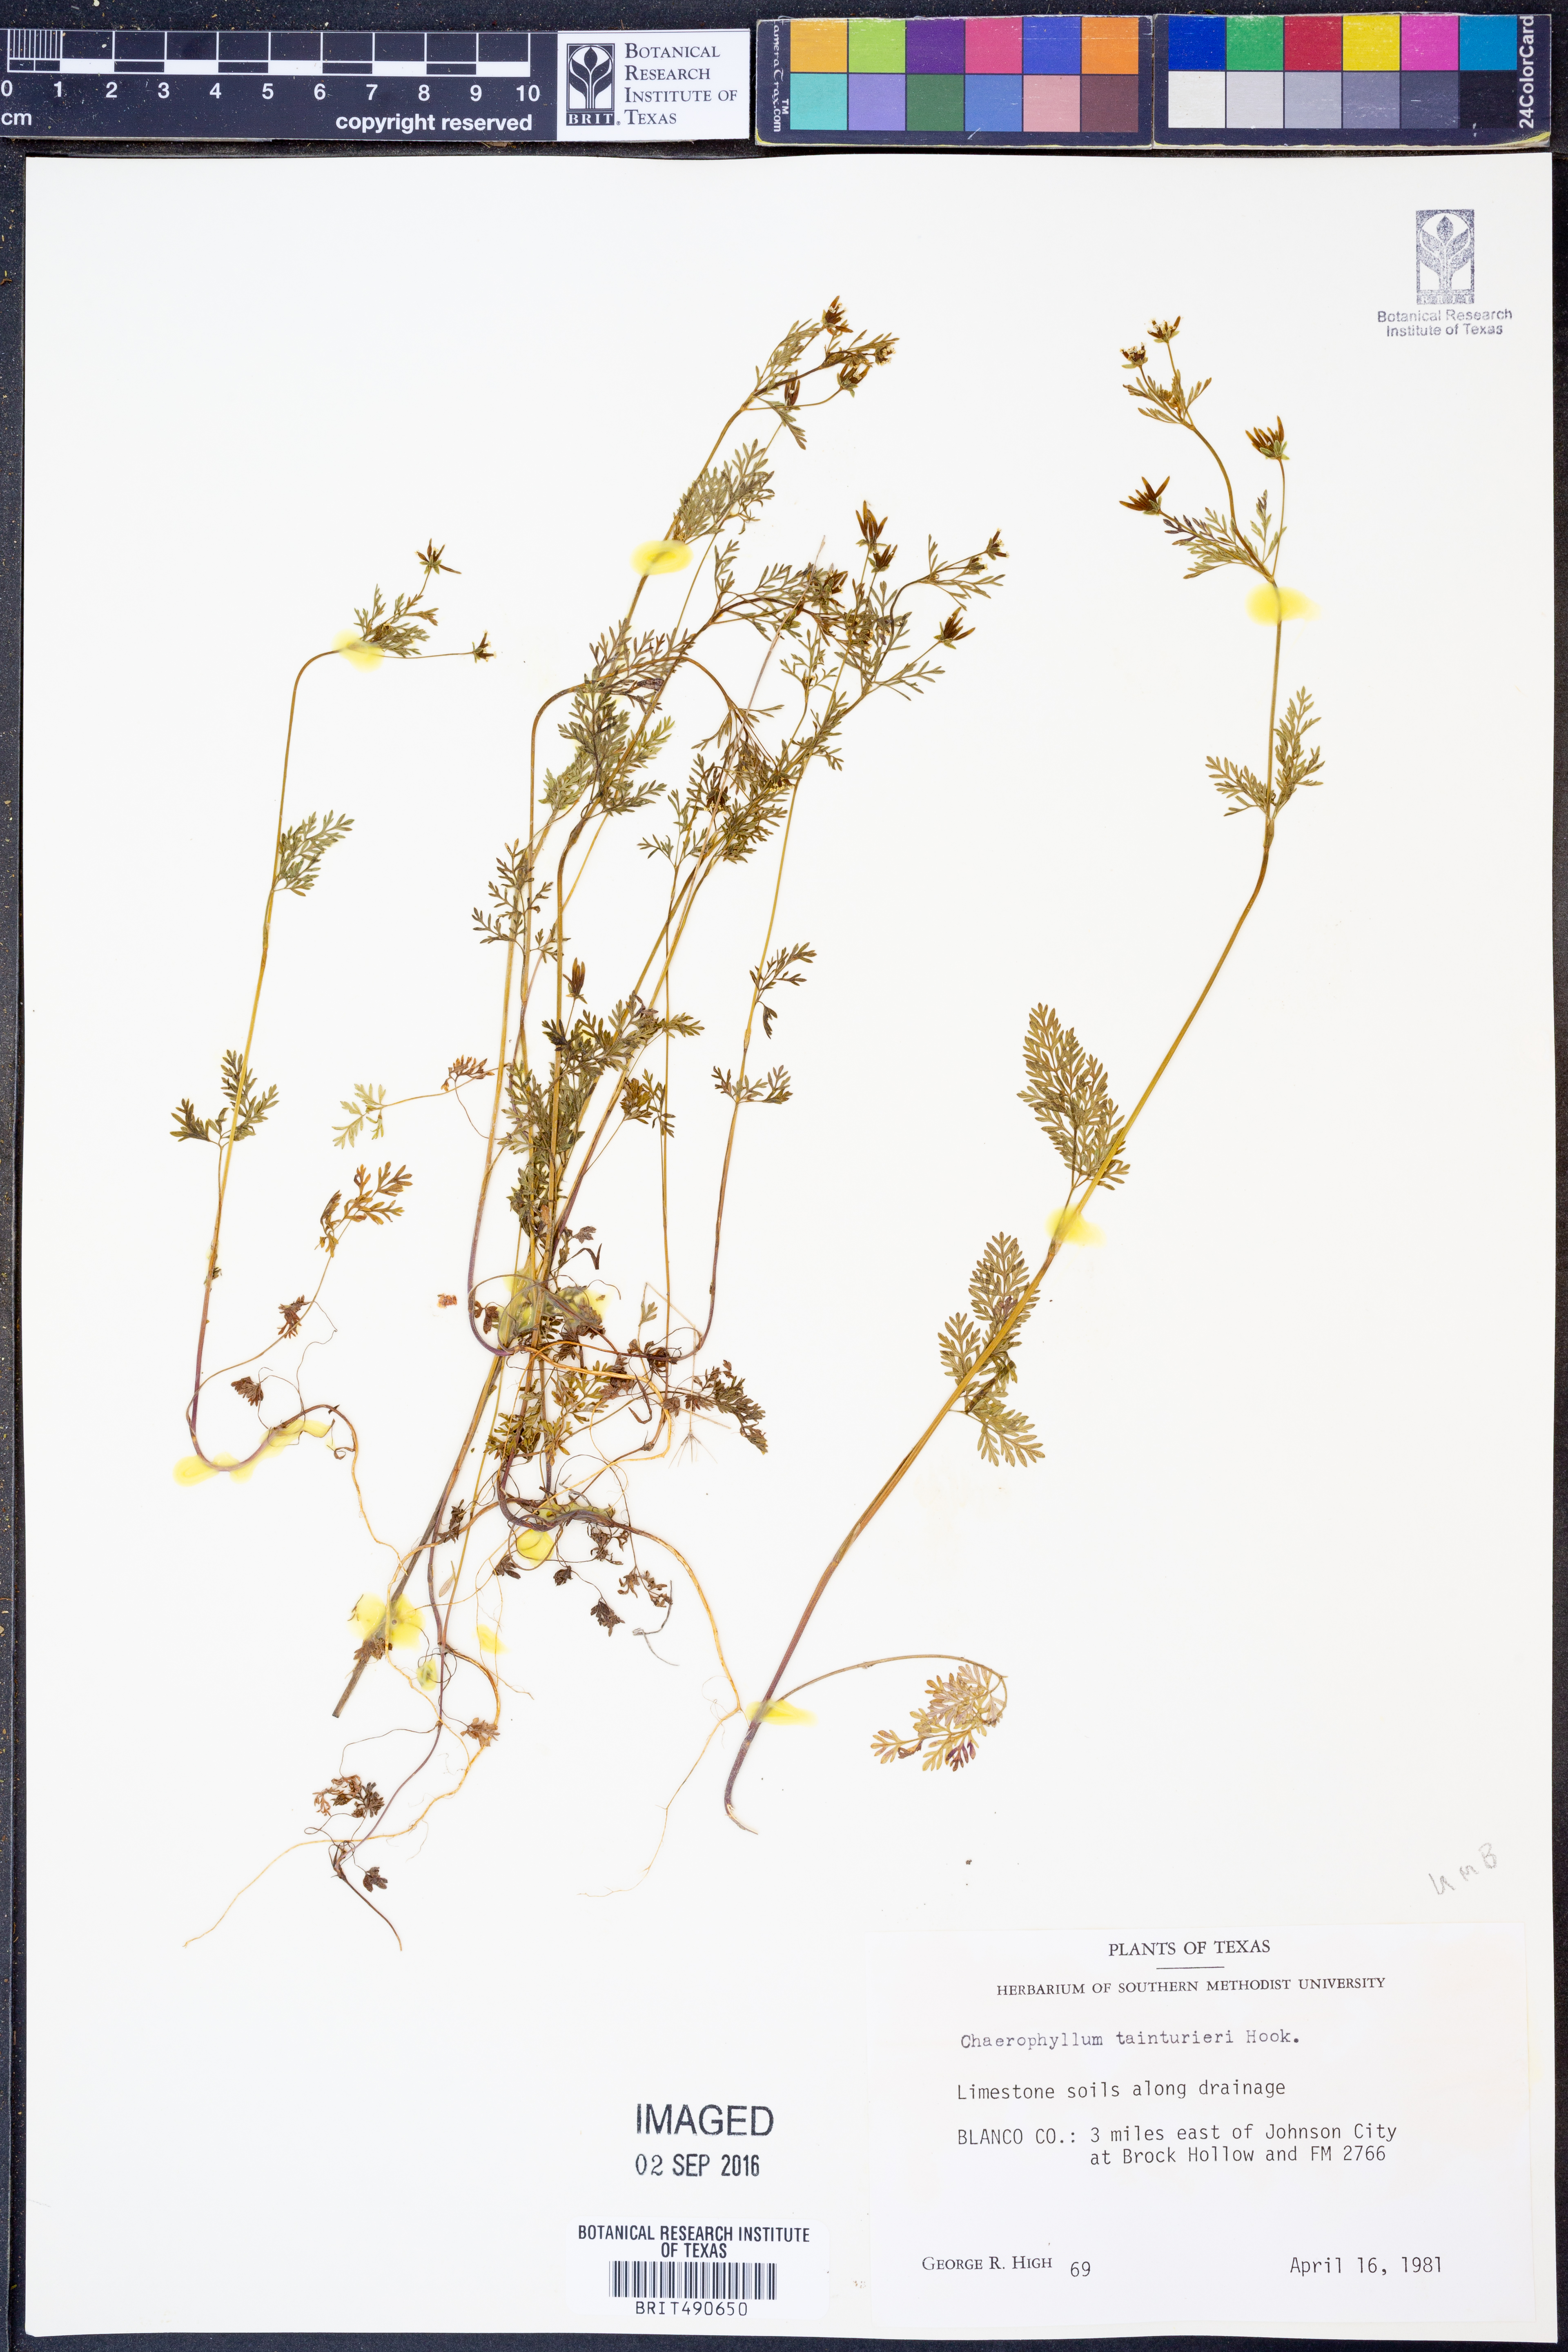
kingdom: Plantae
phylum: Tracheophyta
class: Magnoliopsida
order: Apiales
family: Apiaceae
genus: Chaerophyllum
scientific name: Chaerophyllum tainturieri
